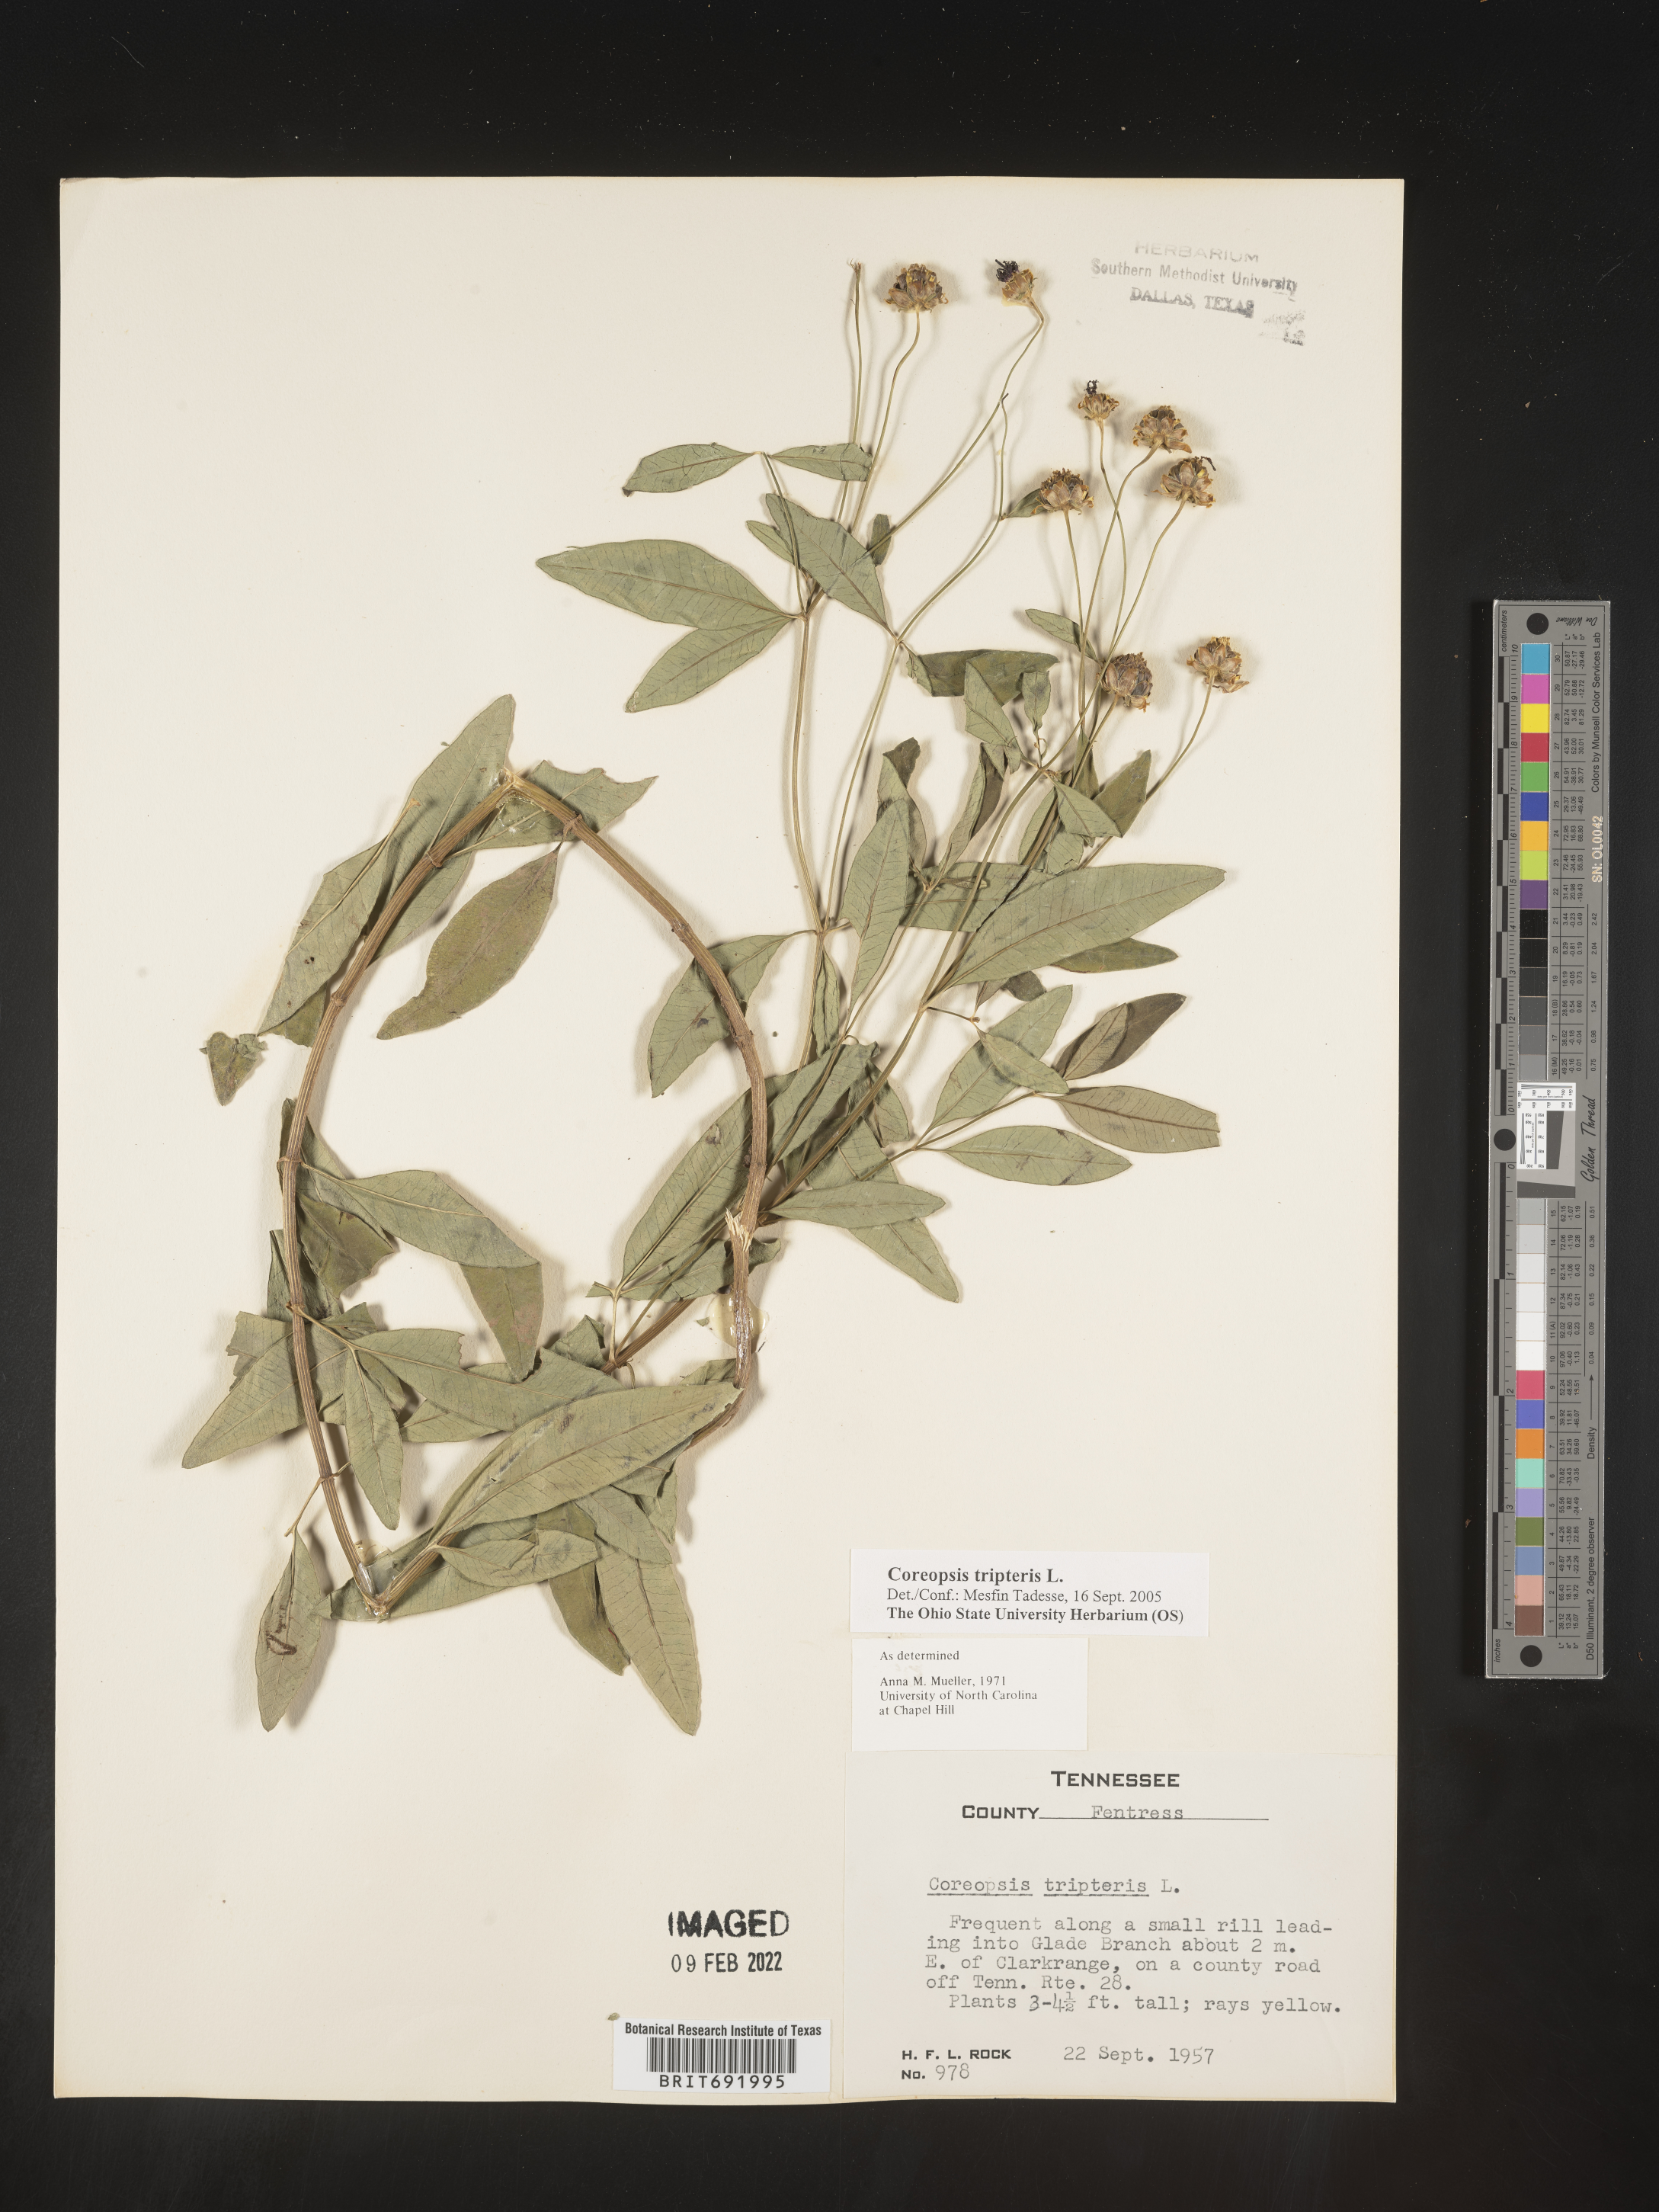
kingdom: Plantae
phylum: Tracheophyta
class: Magnoliopsida
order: Asterales
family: Asteraceae
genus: Coreopsis
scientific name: Coreopsis tripteris
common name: Tall coreopsis
